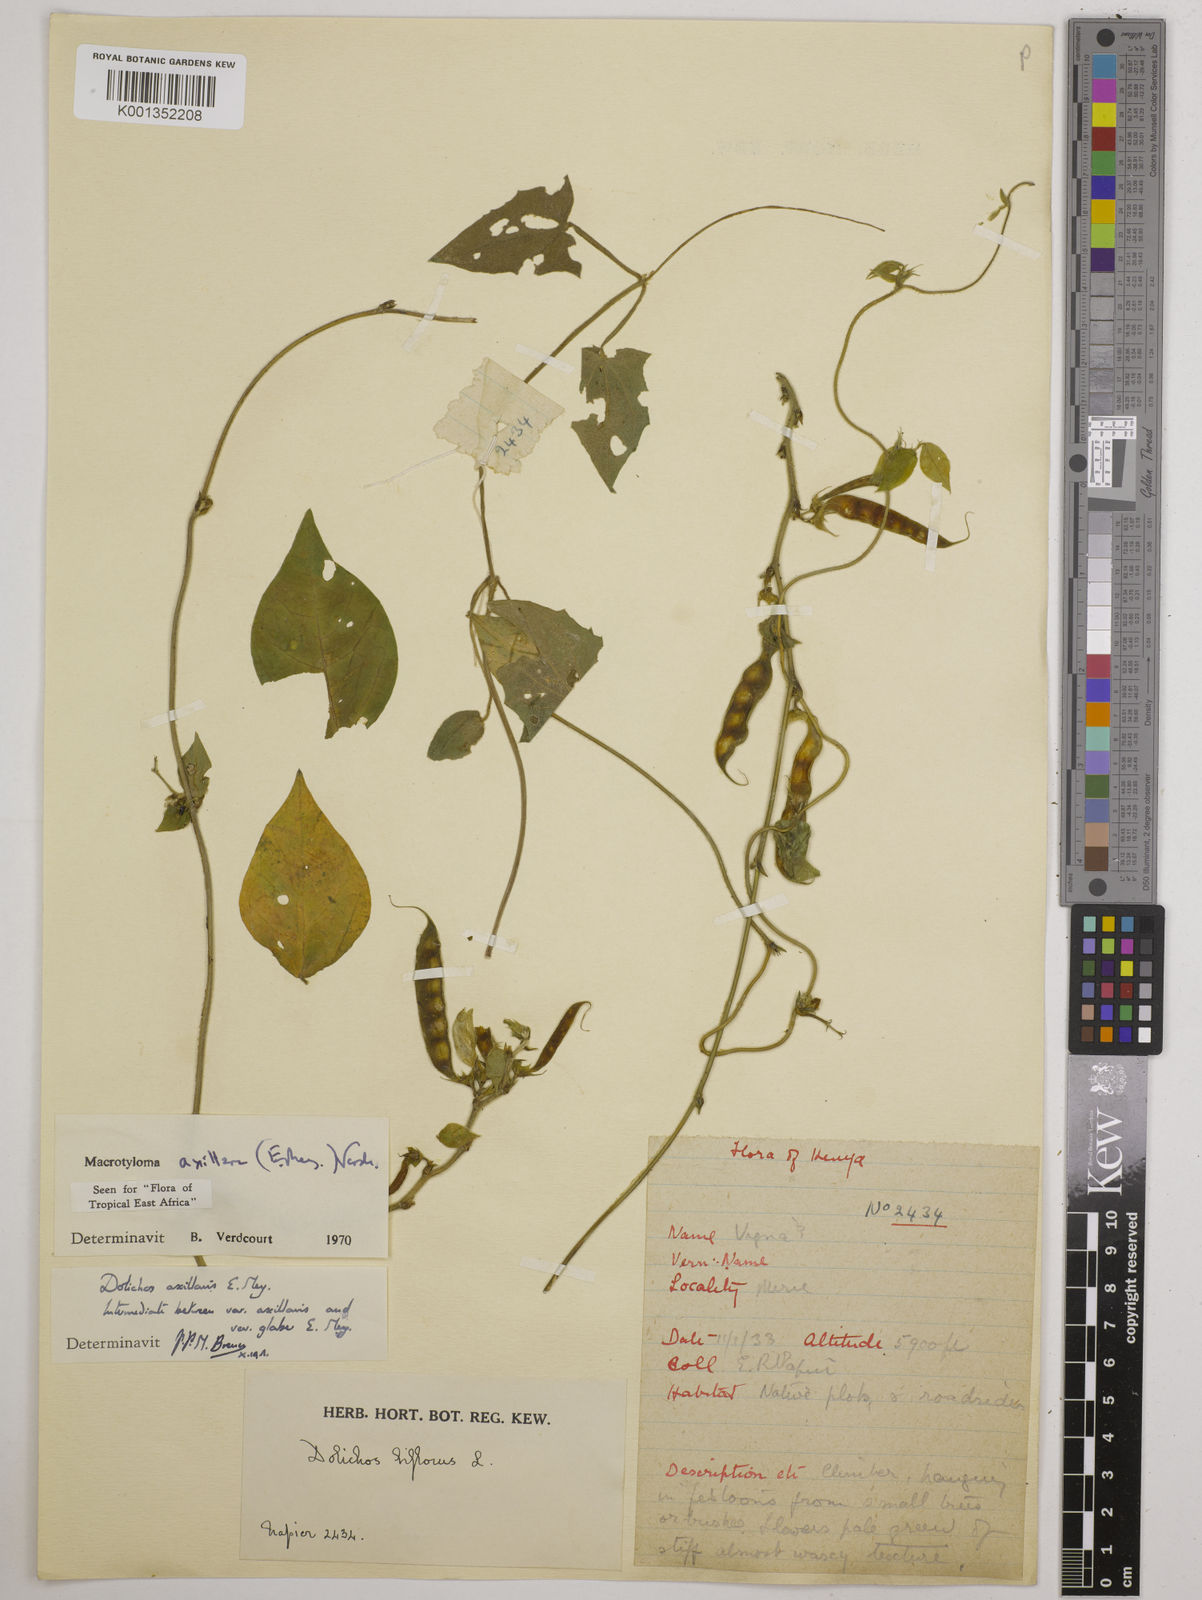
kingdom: Plantae
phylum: Tracheophyta
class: Magnoliopsida
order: Fabales
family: Fabaceae
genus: Macrotyloma
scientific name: Macrotyloma axillare
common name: Perennial horsegram
